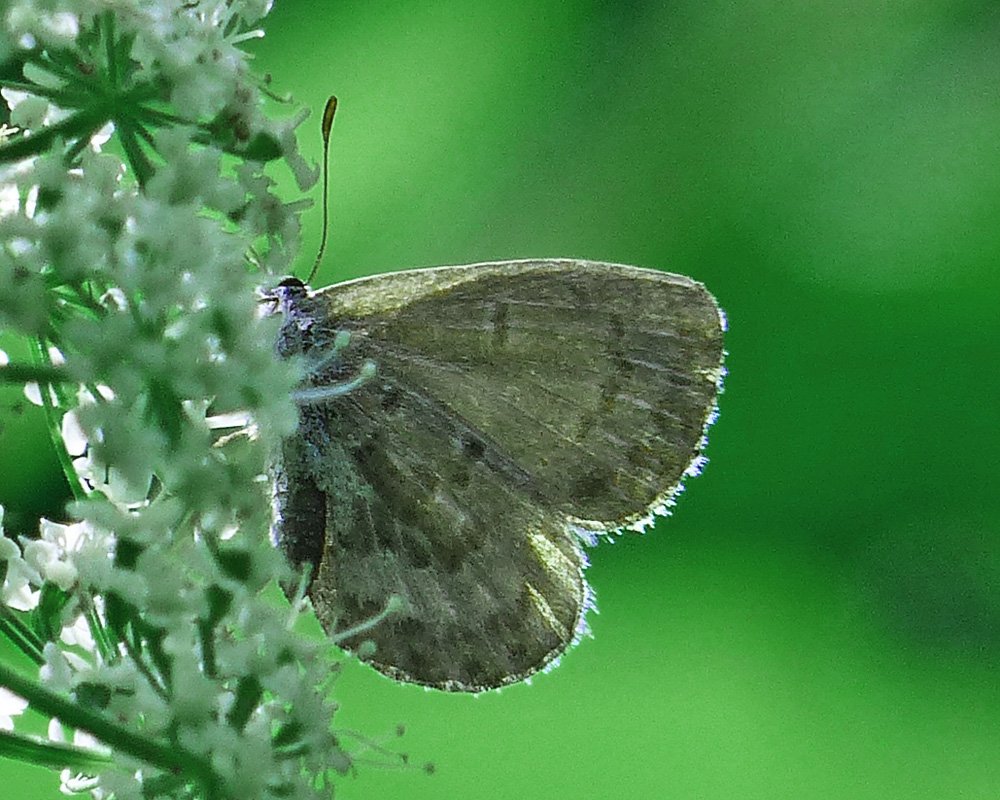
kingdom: Animalia
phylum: Arthropoda
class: Insecta
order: Lepidoptera
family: Lycaenidae
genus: Celastrina
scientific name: Celastrina ladon
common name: Echo Azure
